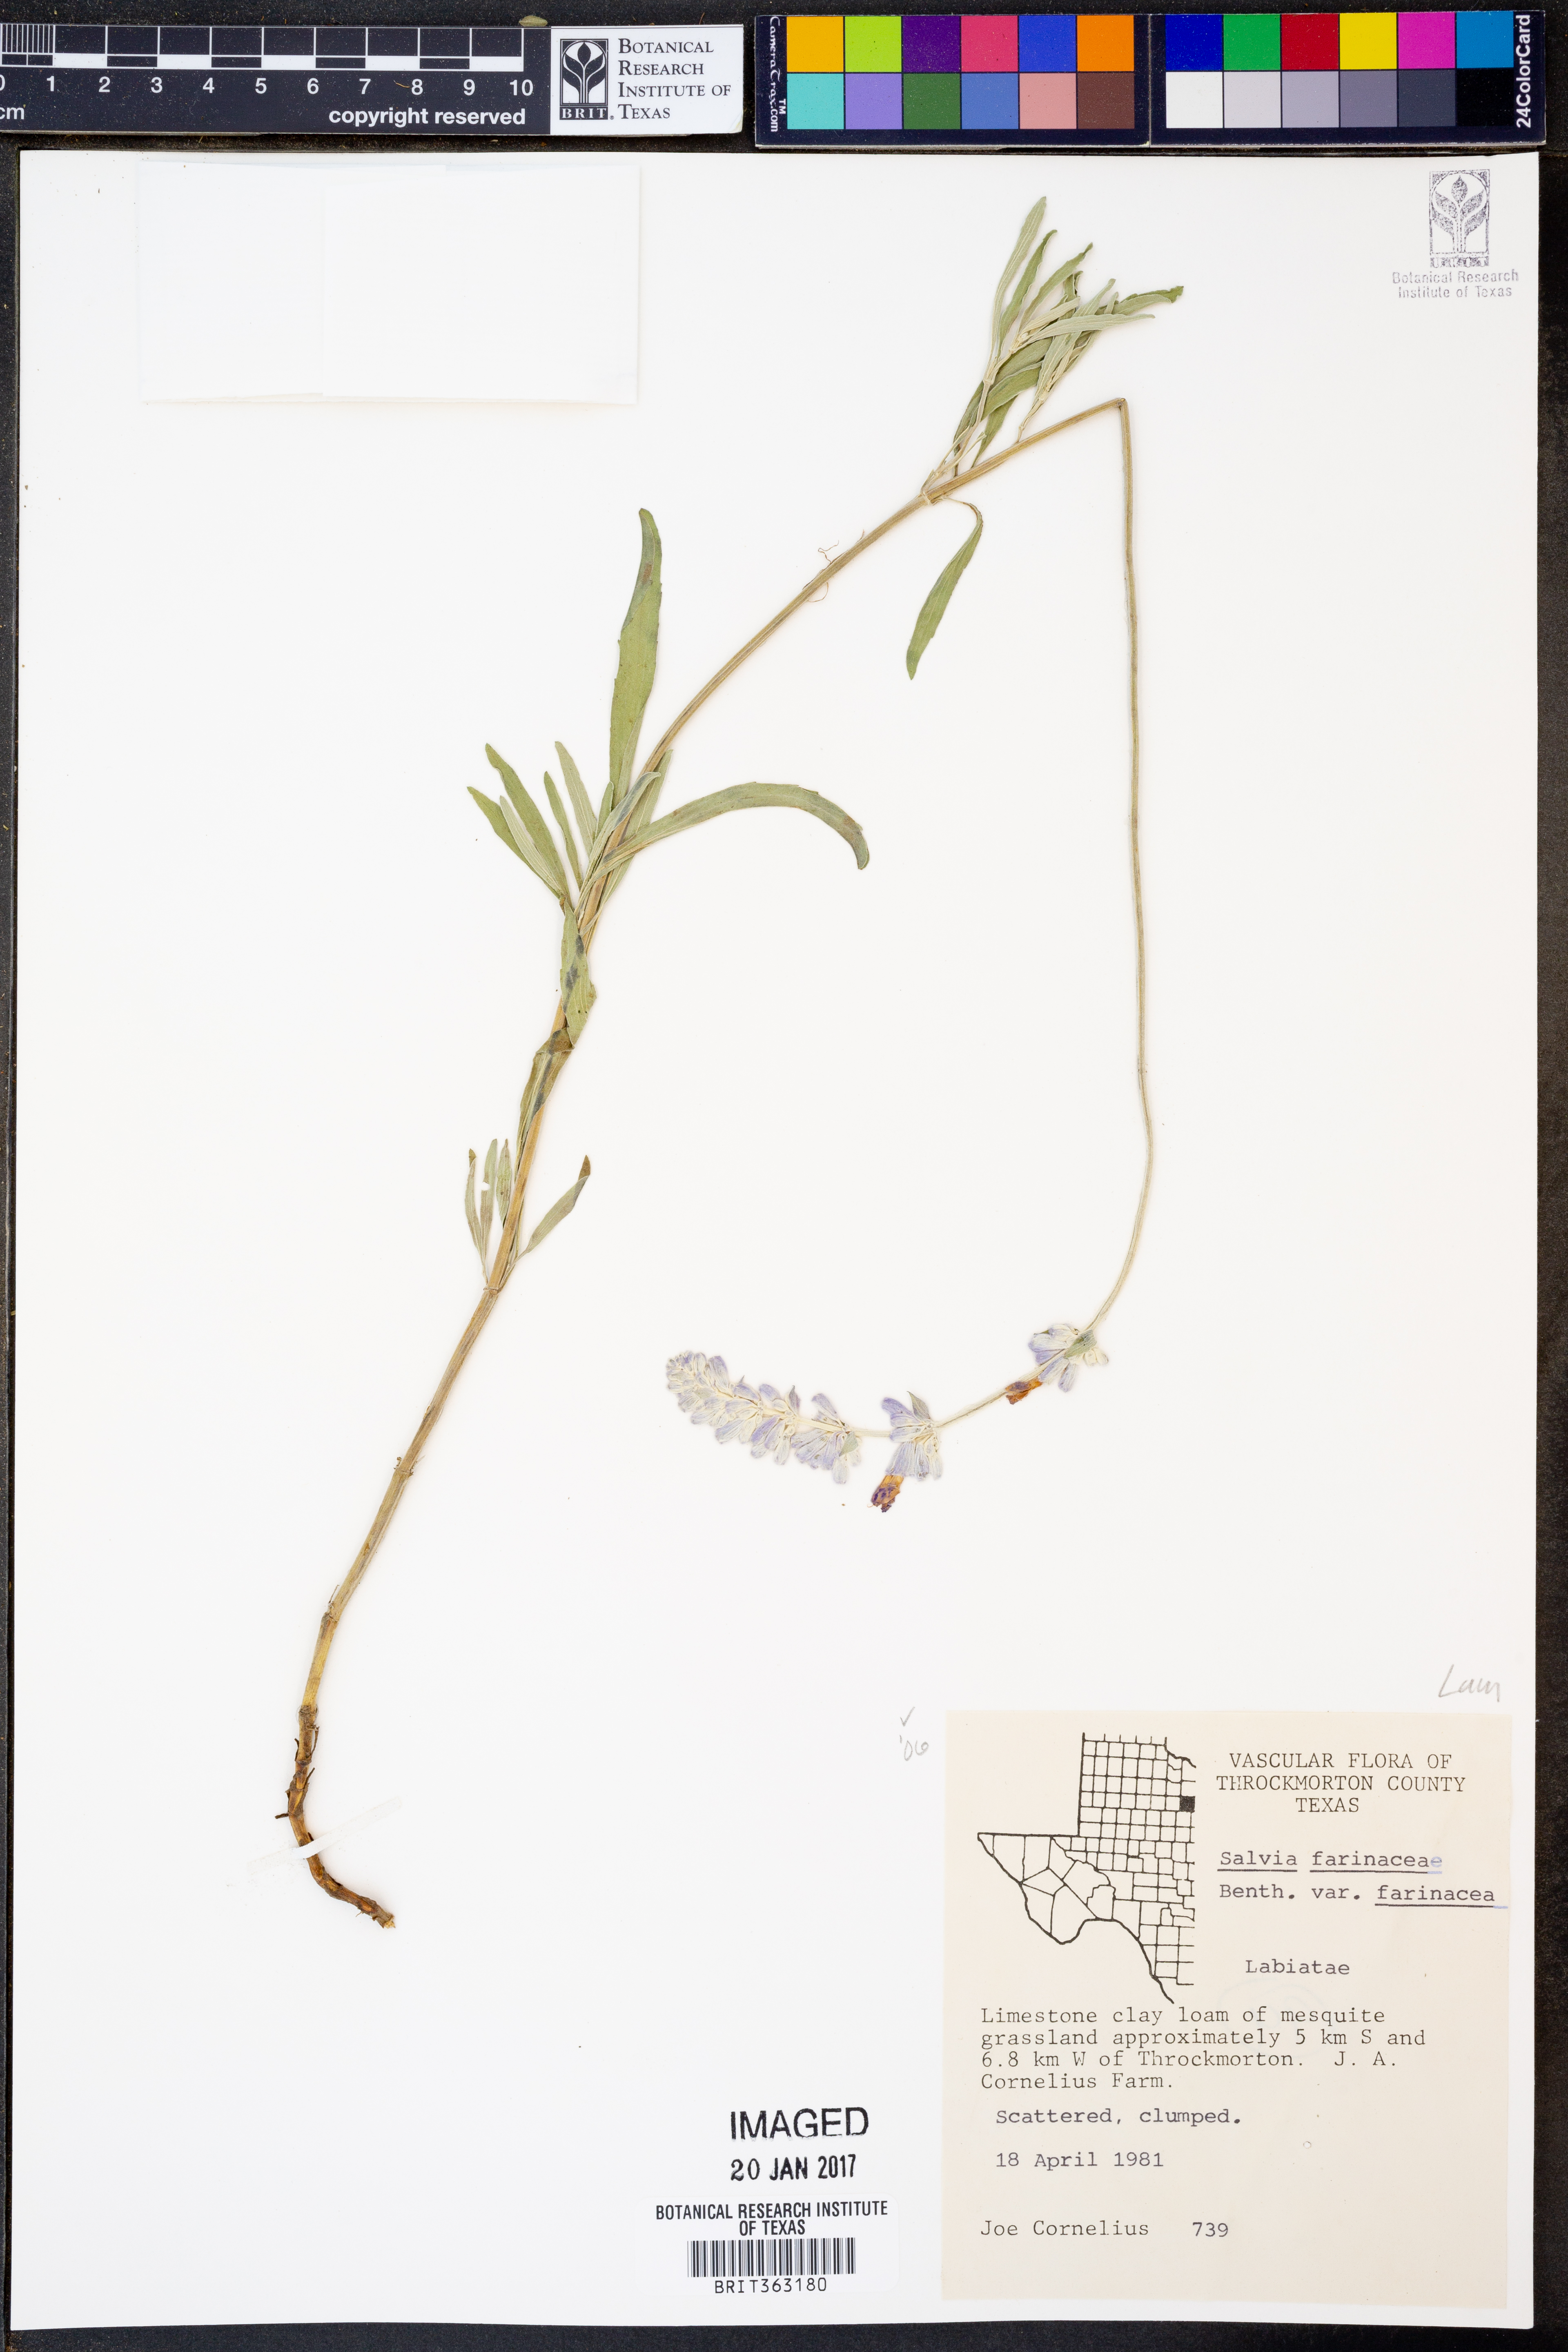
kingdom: Plantae
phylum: Tracheophyta
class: Magnoliopsida
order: Lamiales
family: Lamiaceae
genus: Salvia
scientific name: Salvia farinacea
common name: Mealy sage
